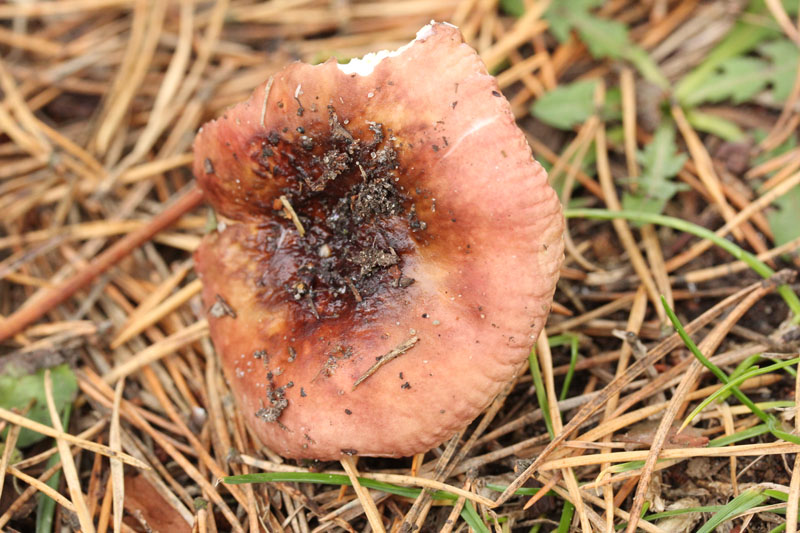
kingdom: Fungi
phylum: Basidiomycota
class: Agaricomycetes
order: Russulales
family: Russulaceae
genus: Russula
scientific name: Russula cessans
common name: fyrre-skørhat
